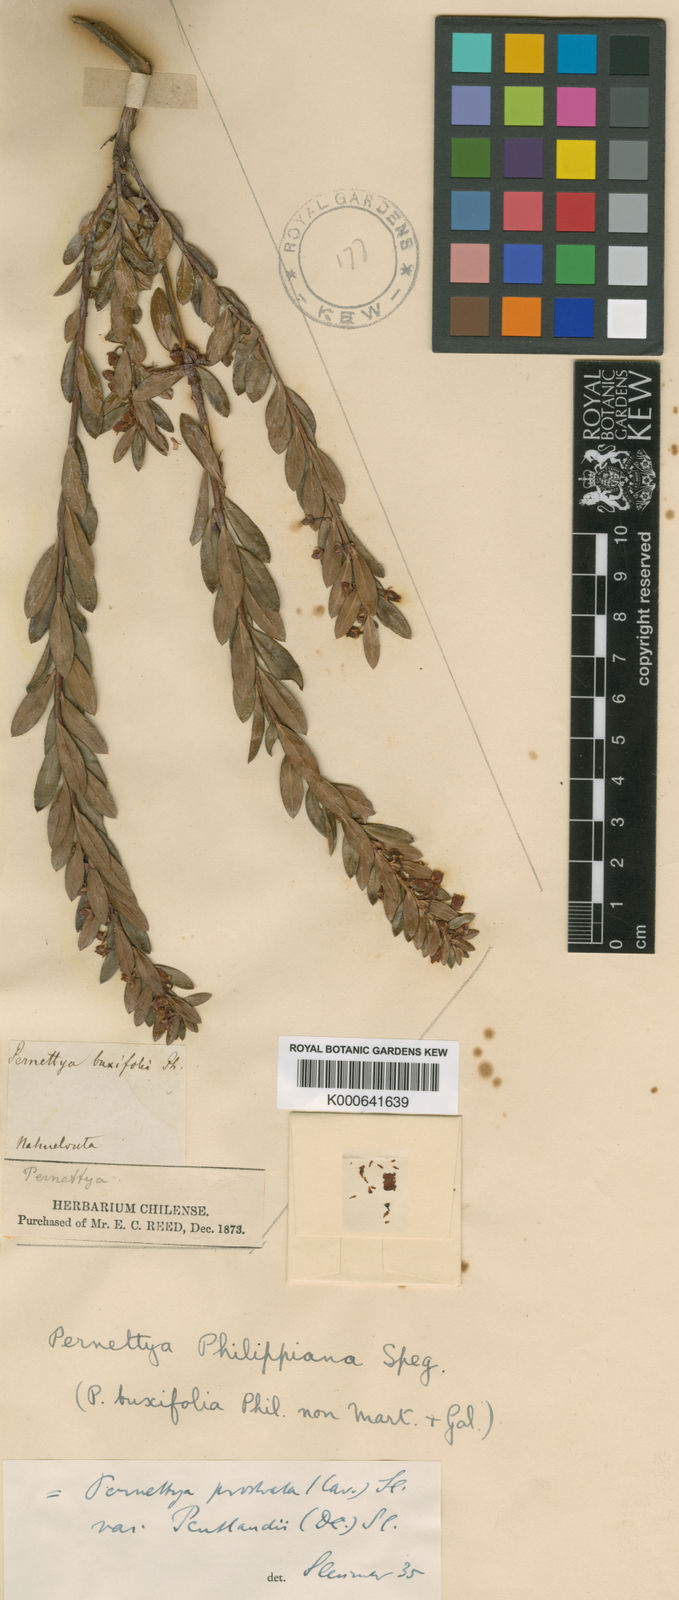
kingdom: Plantae
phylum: Tracheophyta
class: Magnoliopsida
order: Ericales
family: Ericaceae
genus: Gaultheria
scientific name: Gaultheria myrsinoides
